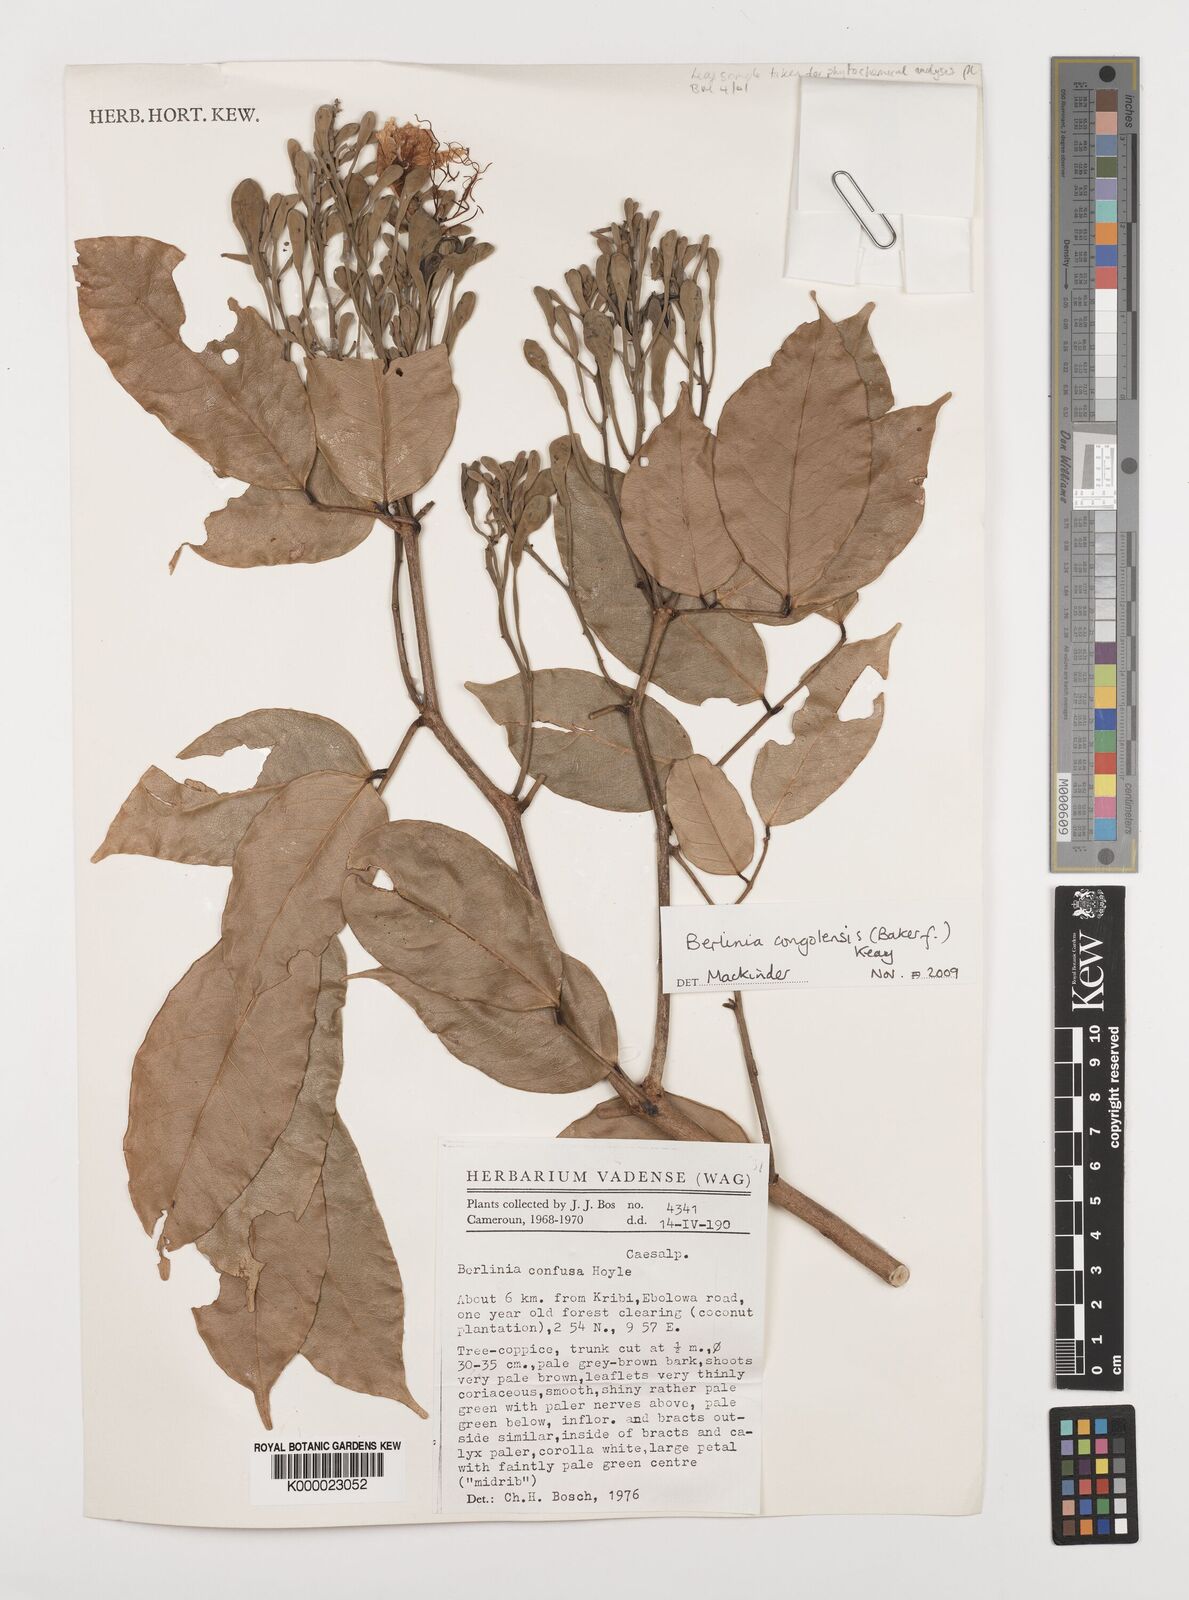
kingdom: Plantae
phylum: Tracheophyta
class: Magnoliopsida
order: Fabales
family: Fabaceae
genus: Berlinia
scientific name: Berlinia congolensis
